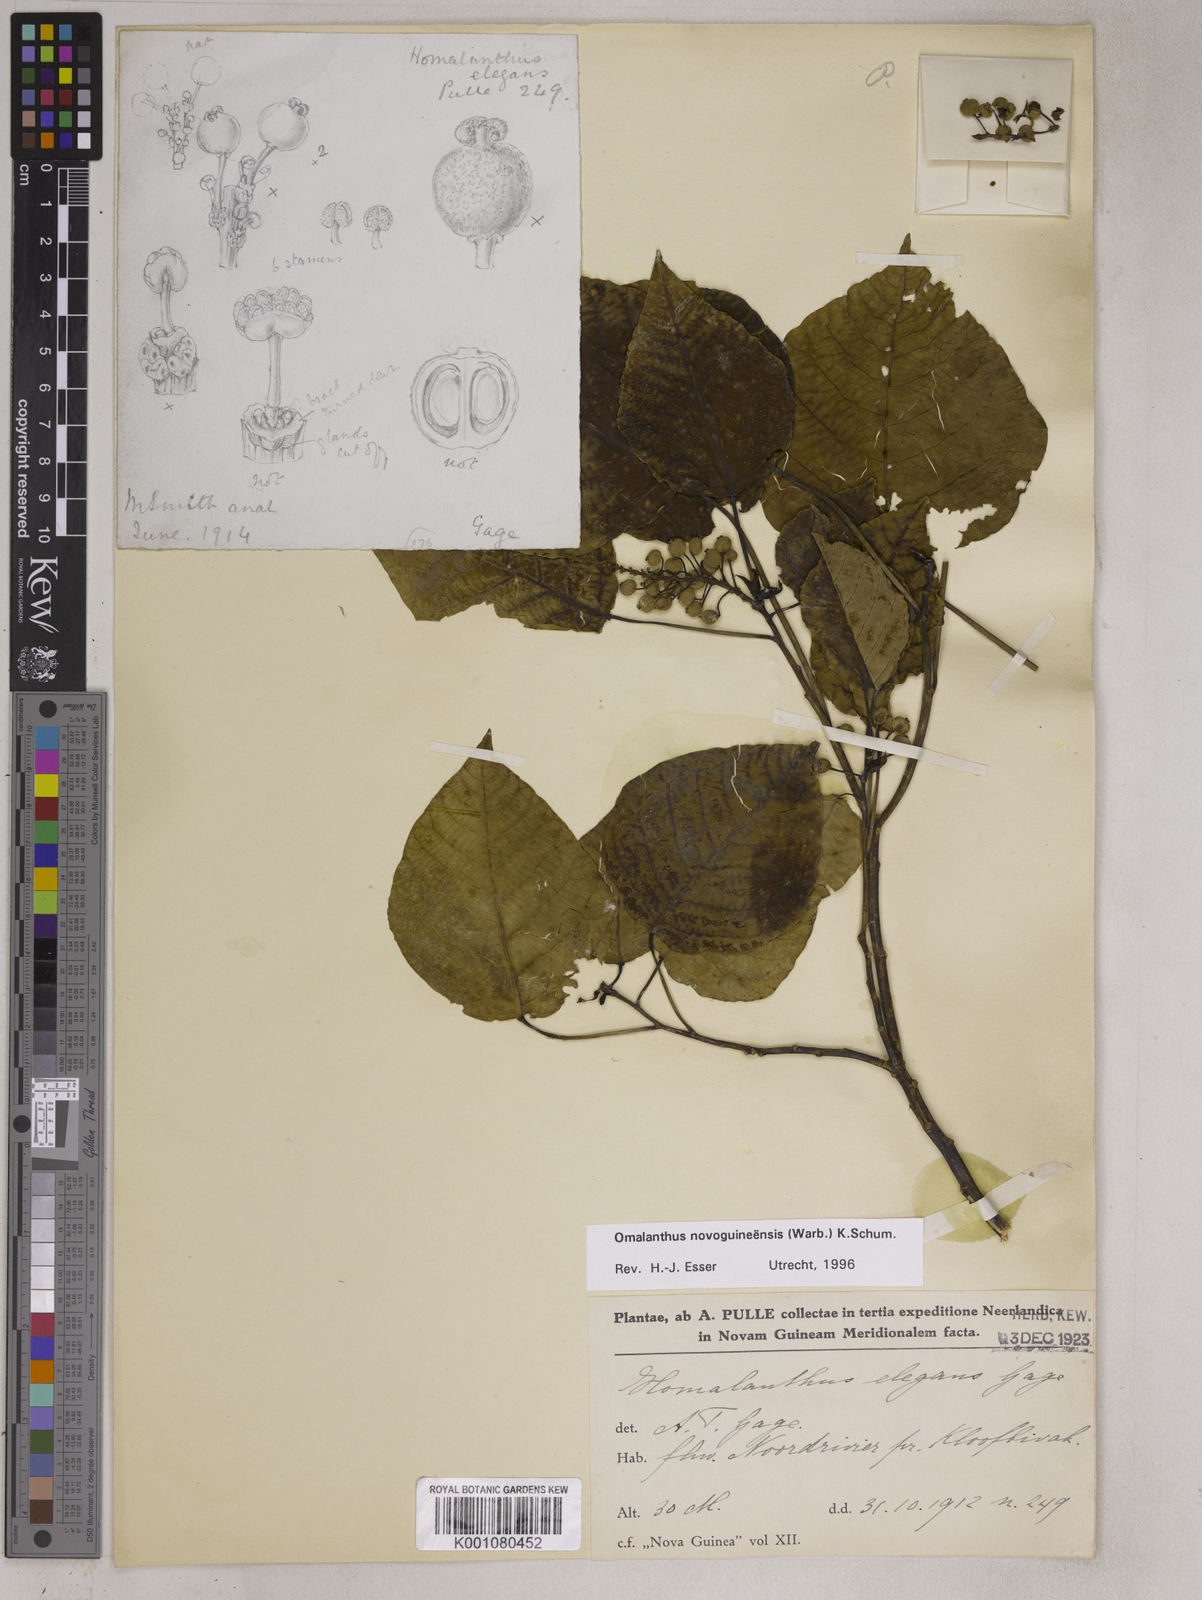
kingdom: Plantae
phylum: Tracheophyta
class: Magnoliopsida
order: Malpighiales
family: Euphorbiaceae
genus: Homalanthus
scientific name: Homalanthus novoguineensis
